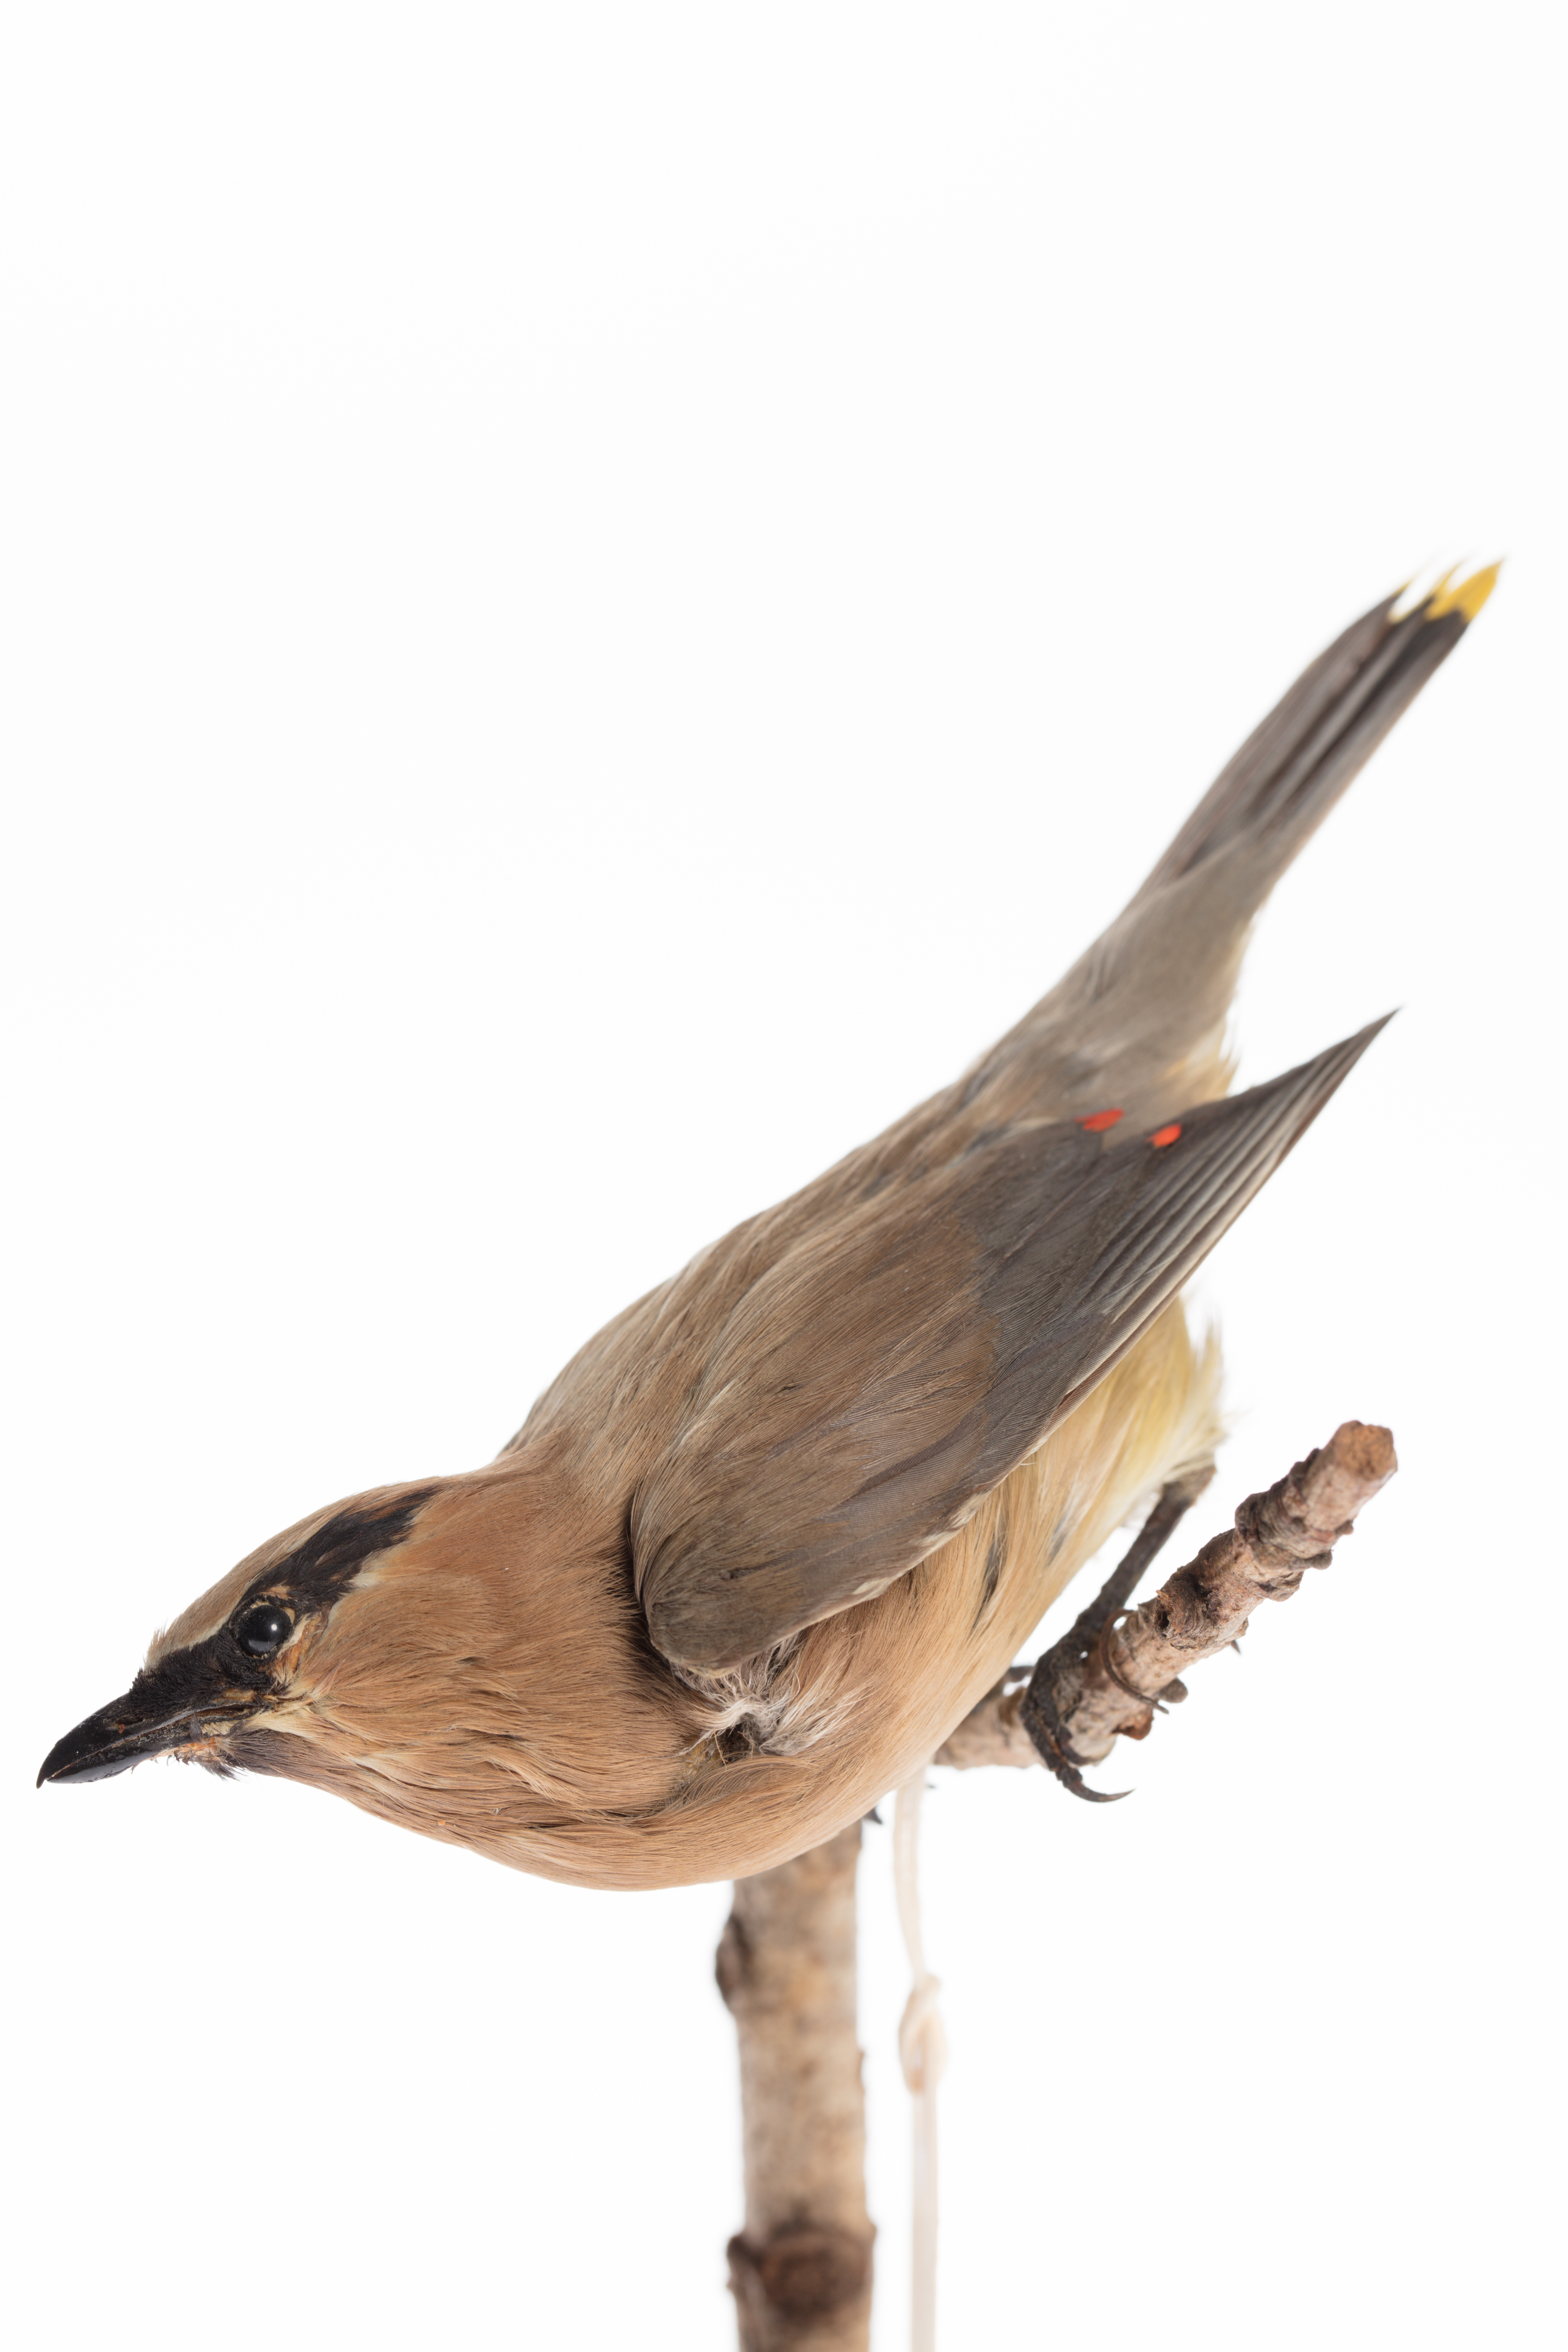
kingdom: Animalia
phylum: Chordata
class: Aves
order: Passeriformes
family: Bombycillidae
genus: Bombycilla
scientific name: Bombycilla cedrorum
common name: Cedar waxwing
